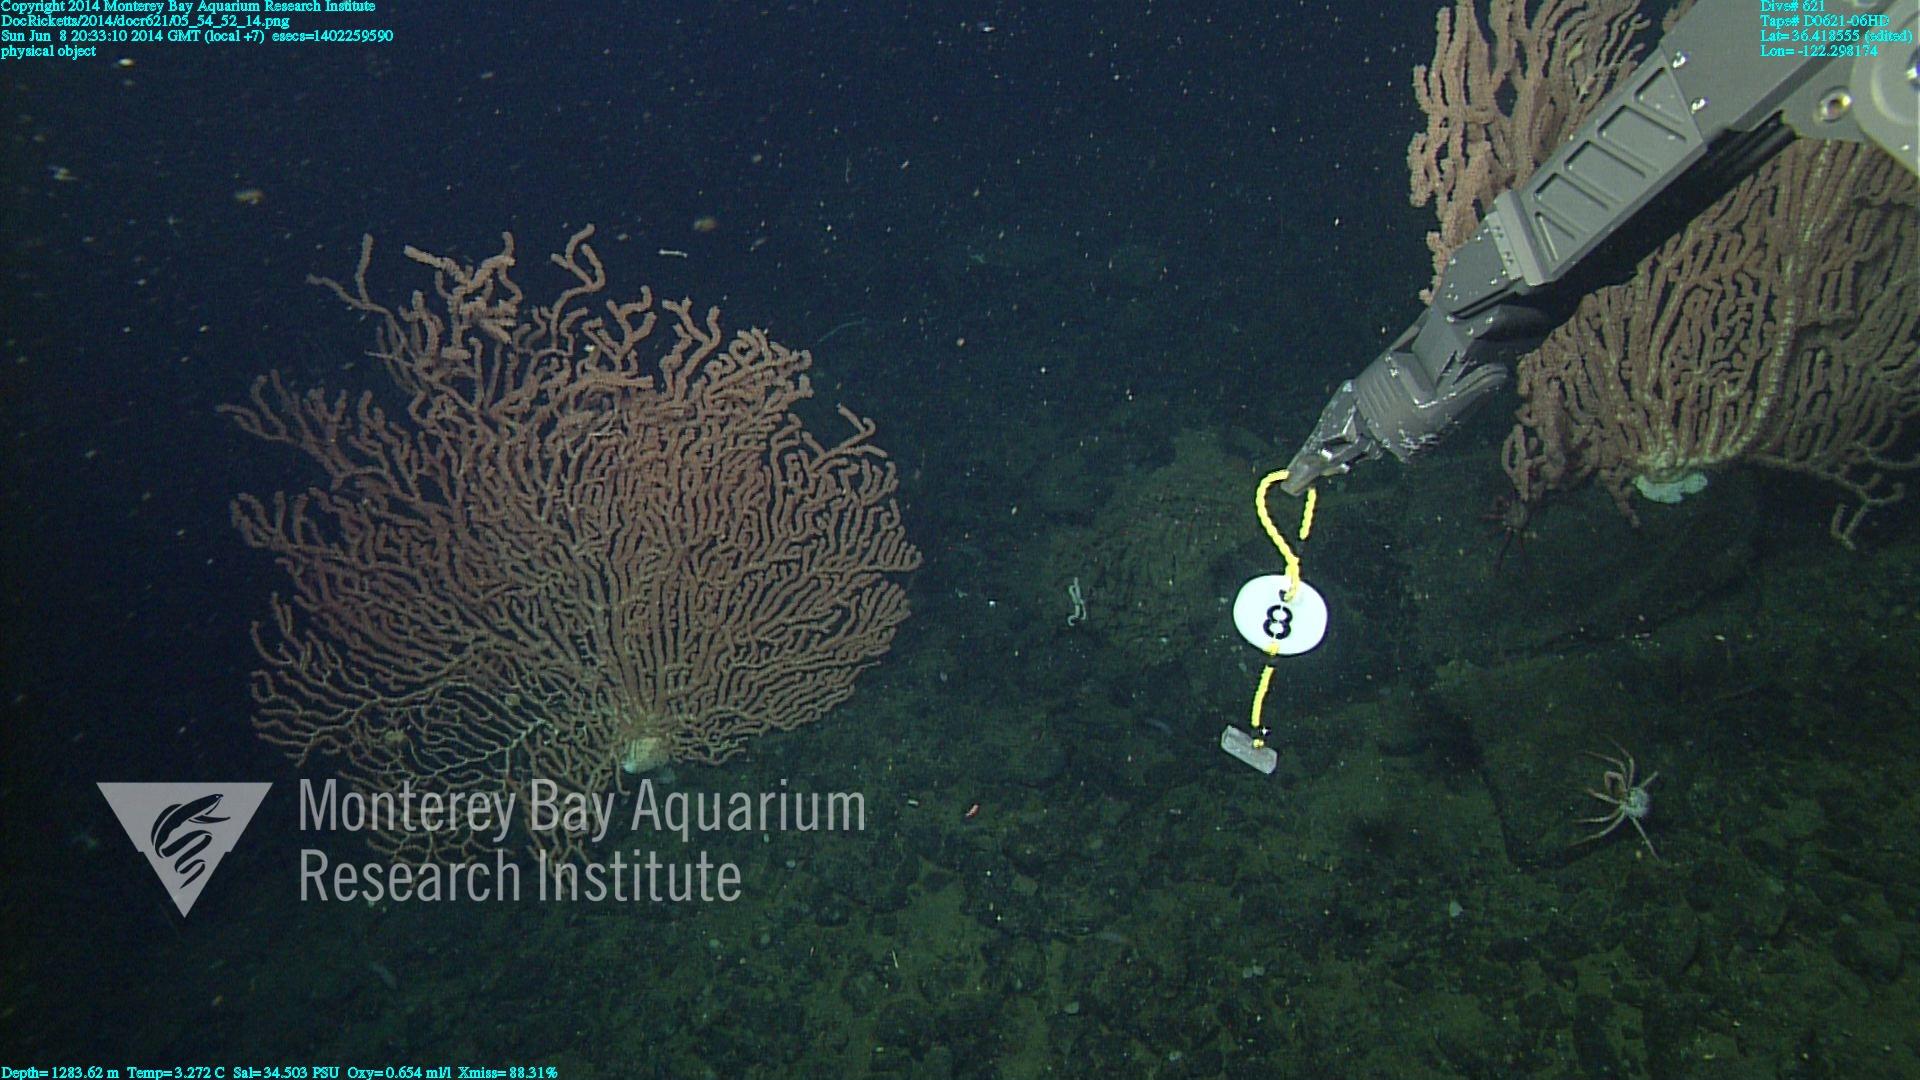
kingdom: Animalia
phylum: Cnidaria
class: Anthozoa
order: Scleralcyonacea
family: Keratoisididae
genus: Keratoisis
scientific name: Keratoisis
